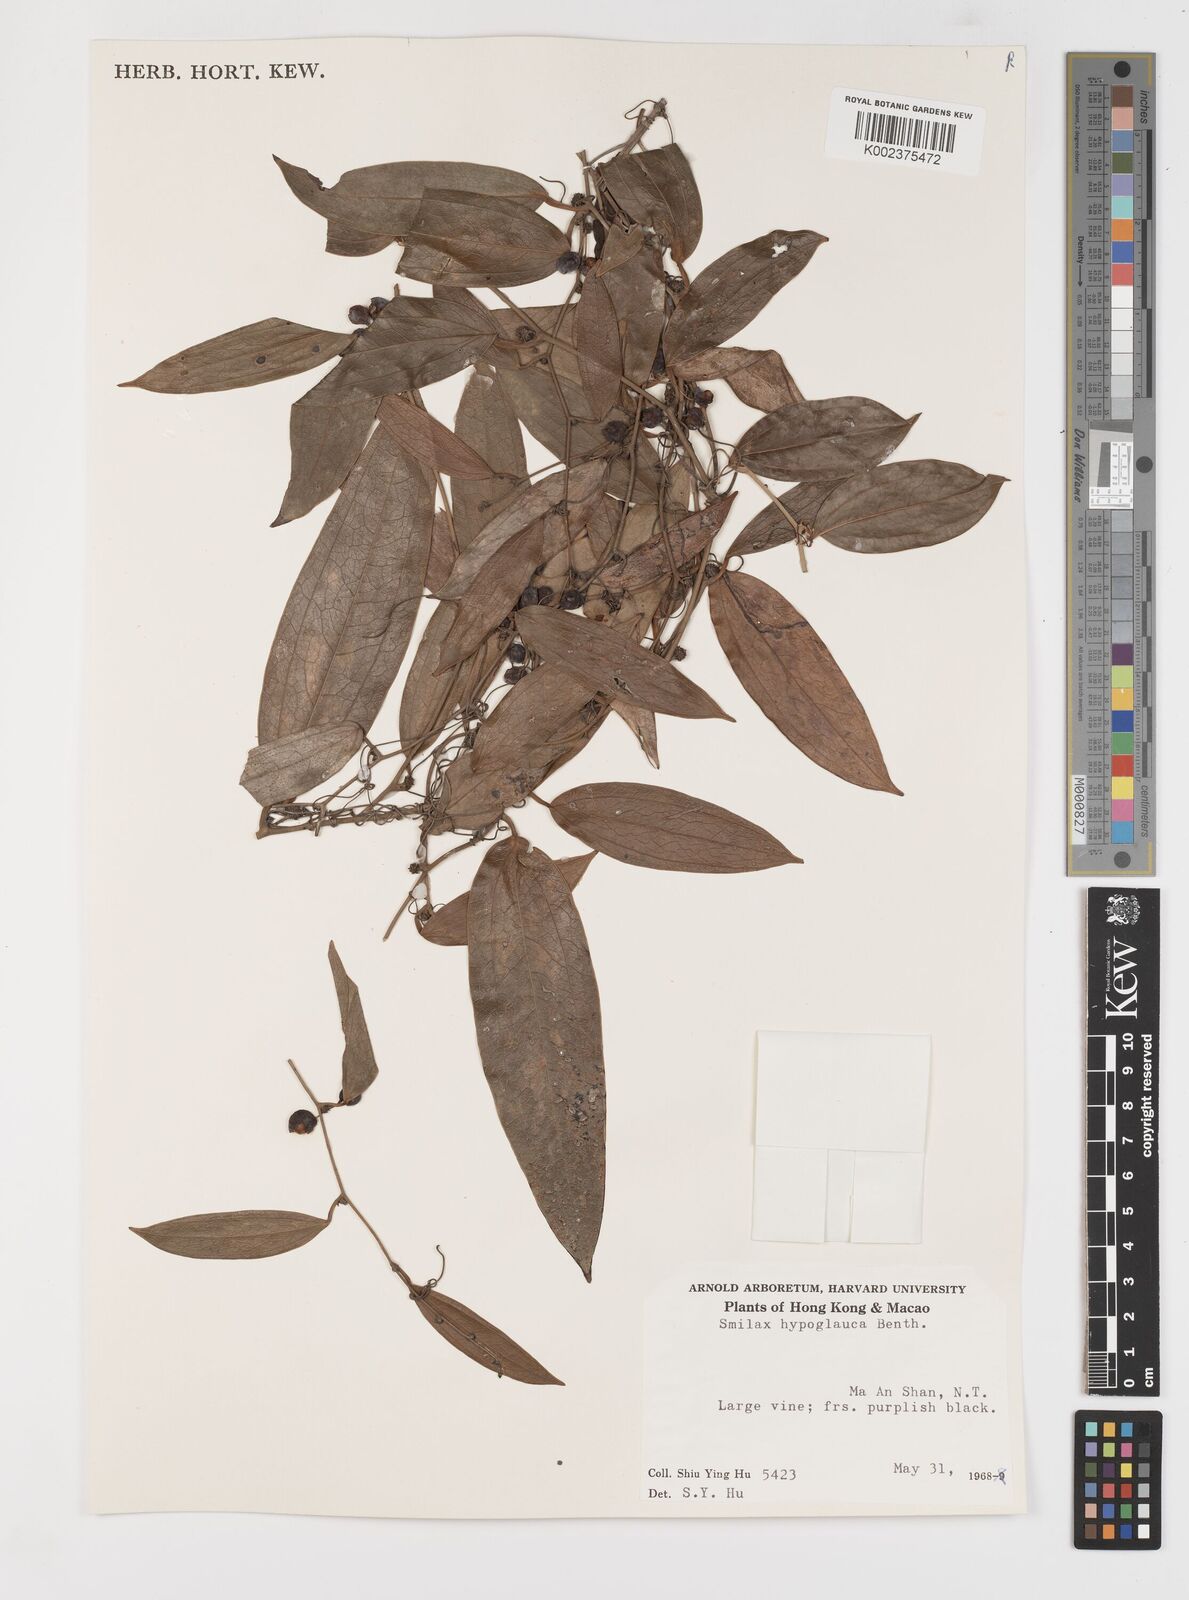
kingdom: Plantae
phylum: Tracheophyta
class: Liliopsida
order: Liliales
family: Smilacaceae
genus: Smilax
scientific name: Smilax hypoglauca
